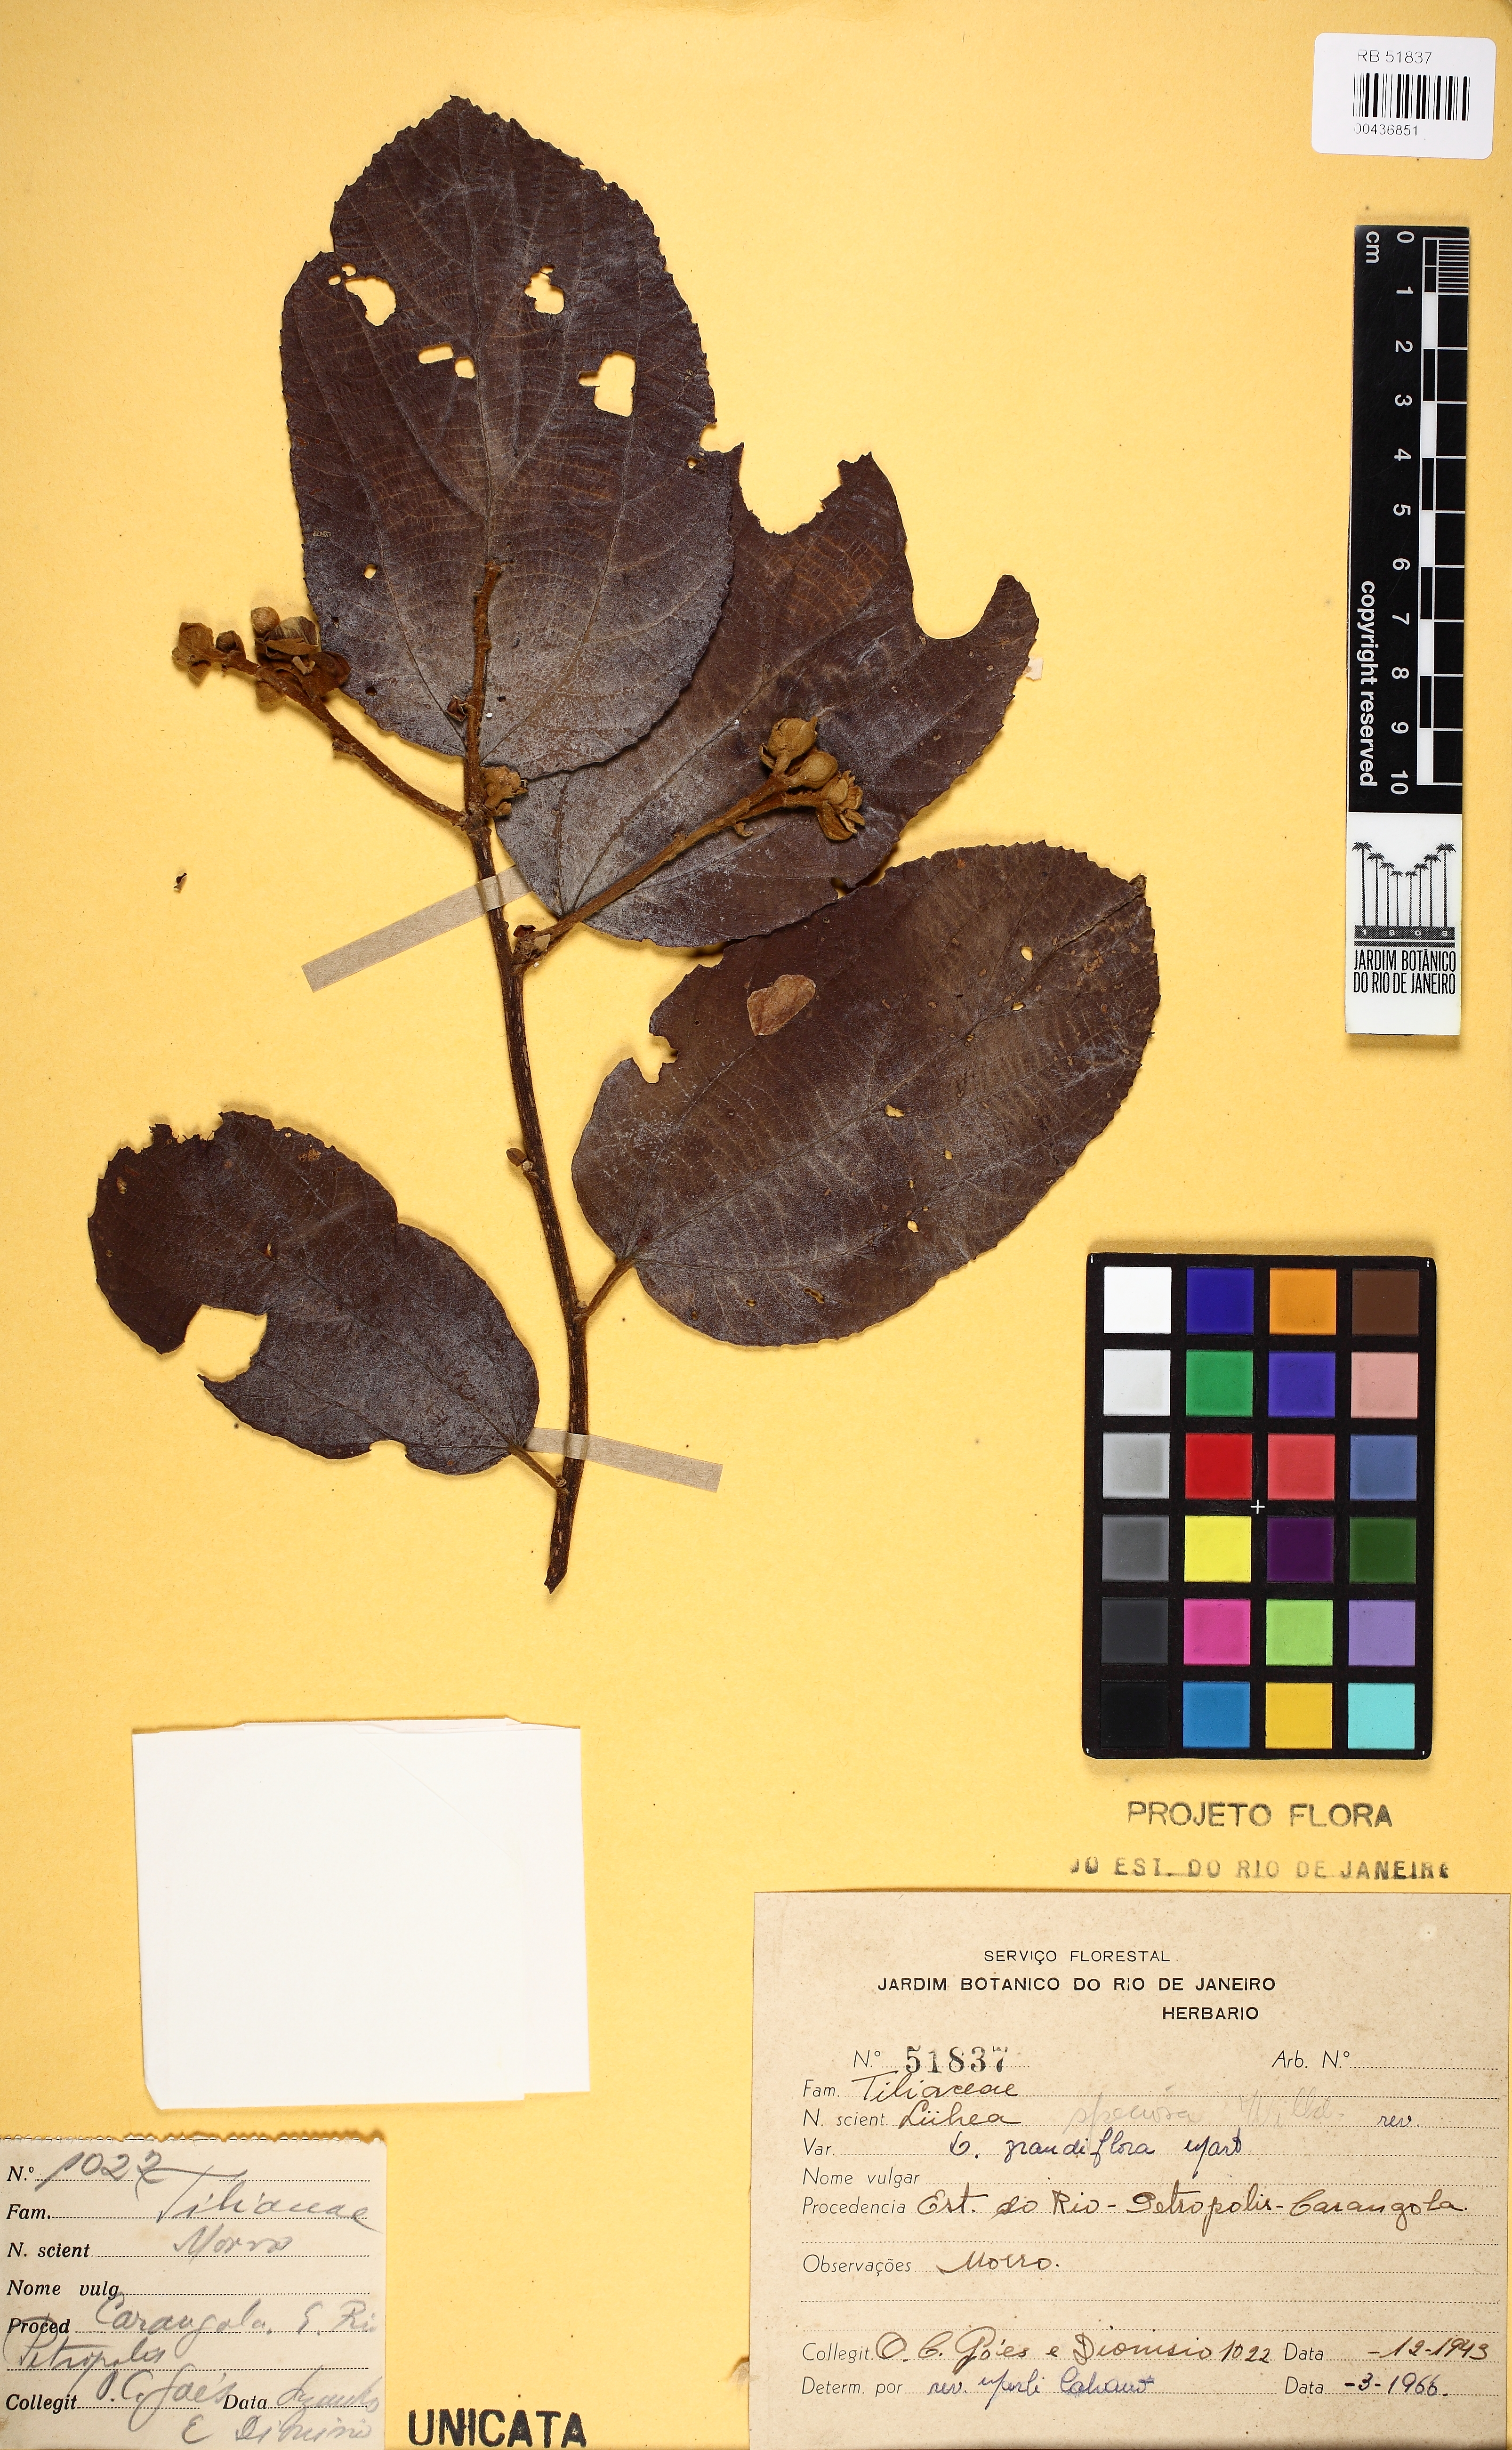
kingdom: Plantae
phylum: Tracheophyta
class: Magnoliopsida
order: Malvales
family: Malvaceae
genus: Luehea
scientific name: Luehea grandiflora
